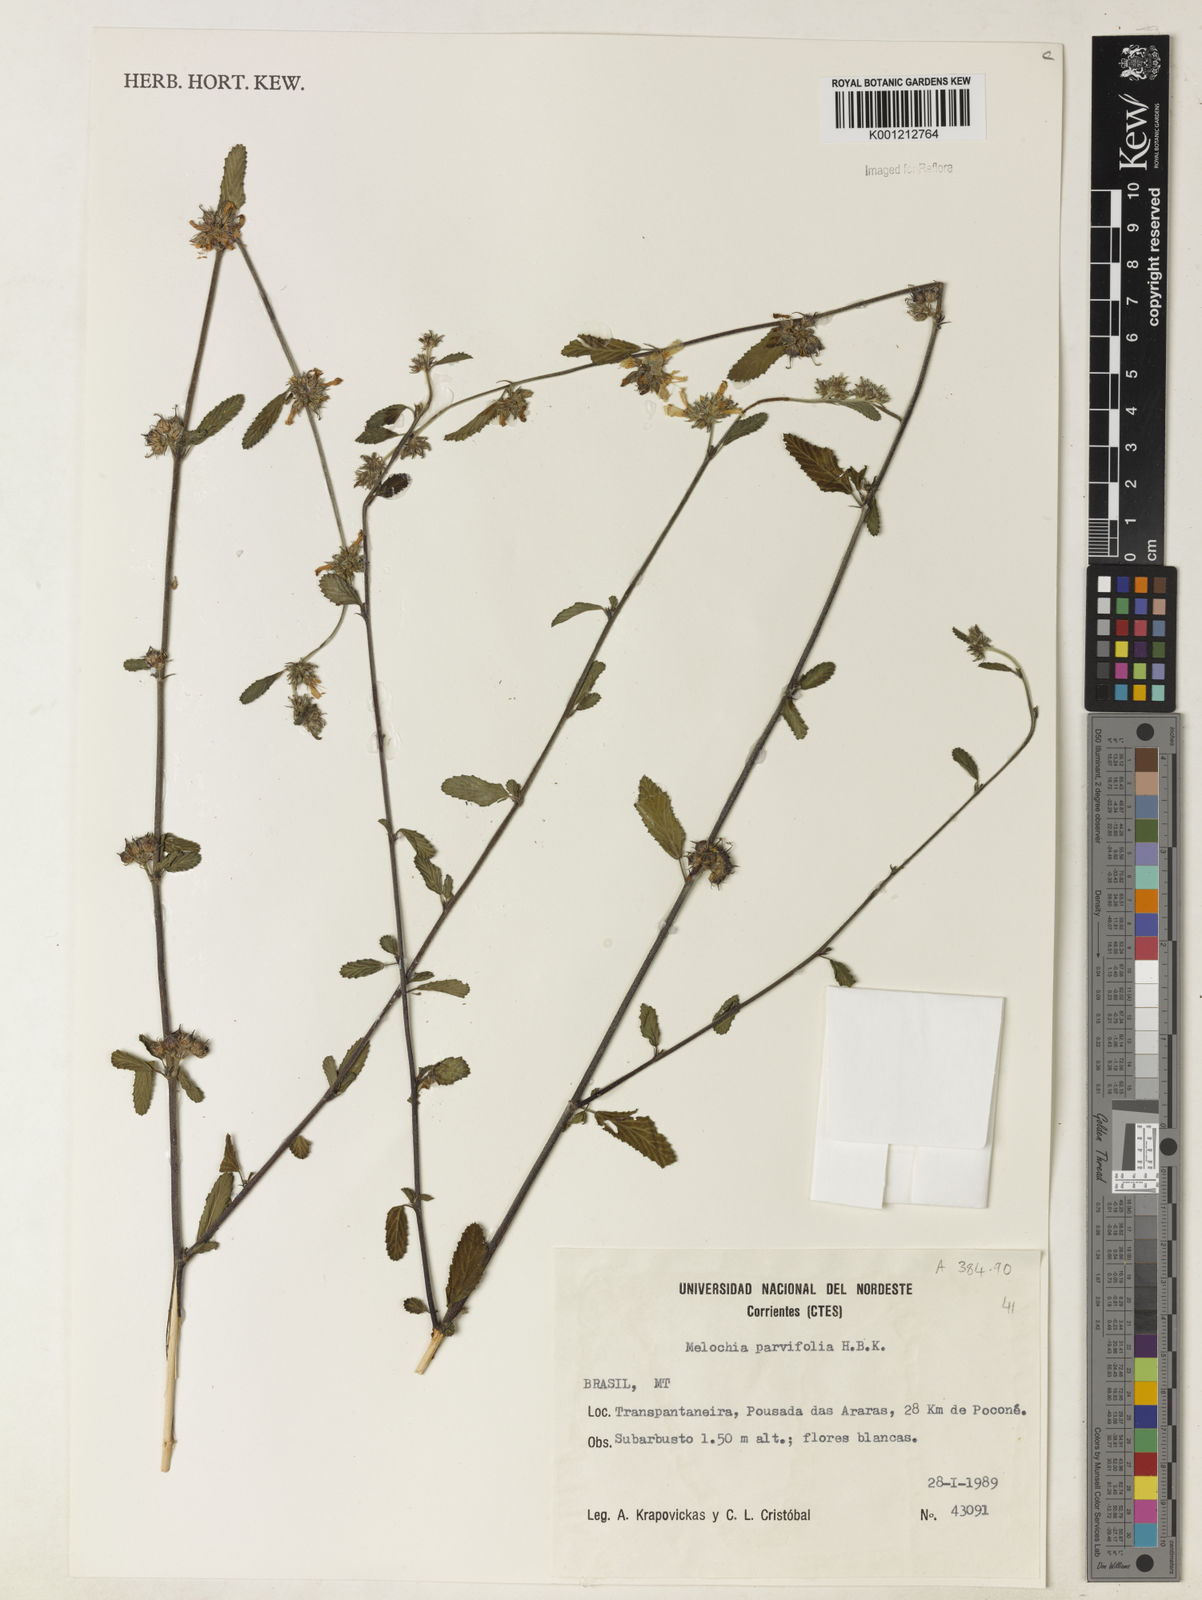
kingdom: Plantae
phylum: Tracheophyta
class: Magnoliopsida
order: Malvales
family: Malvaceae
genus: Melochia
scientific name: Melochia parvifolia
